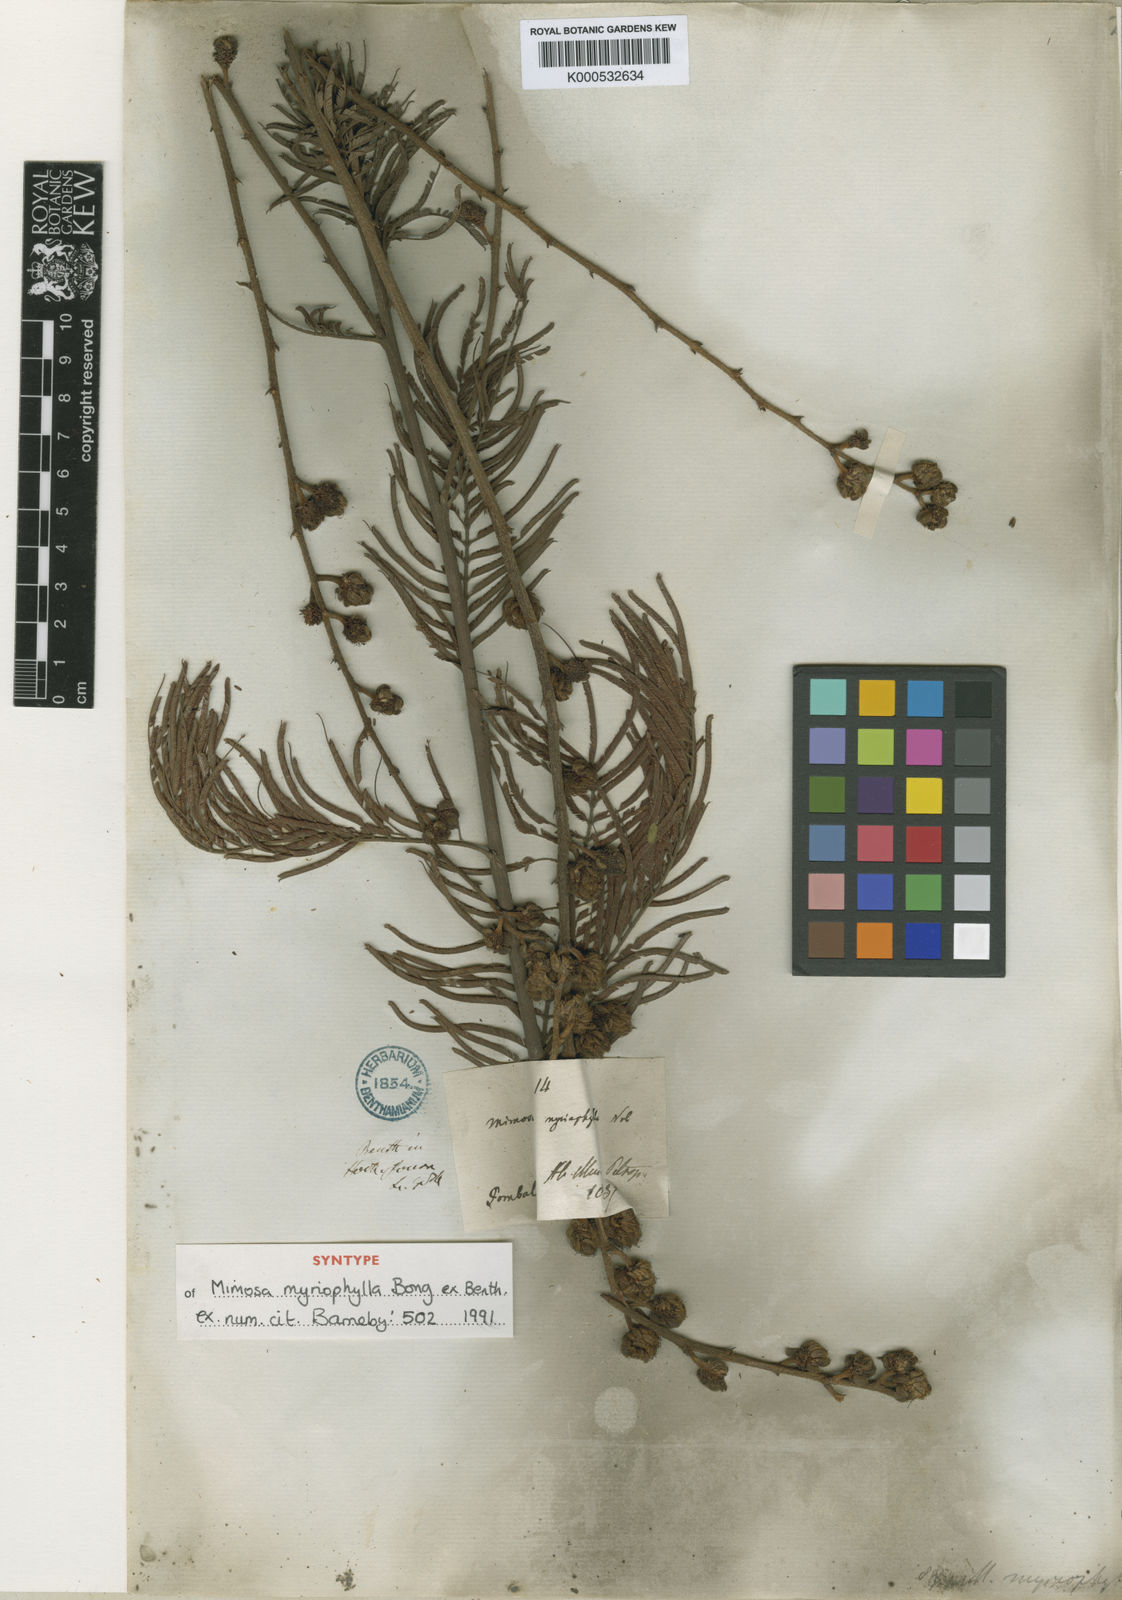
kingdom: Plantae
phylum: Tracheophyta
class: Magnoliopsida
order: Fabales
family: Fabaceae
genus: Mimosa
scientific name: Mimosa myriophylla
